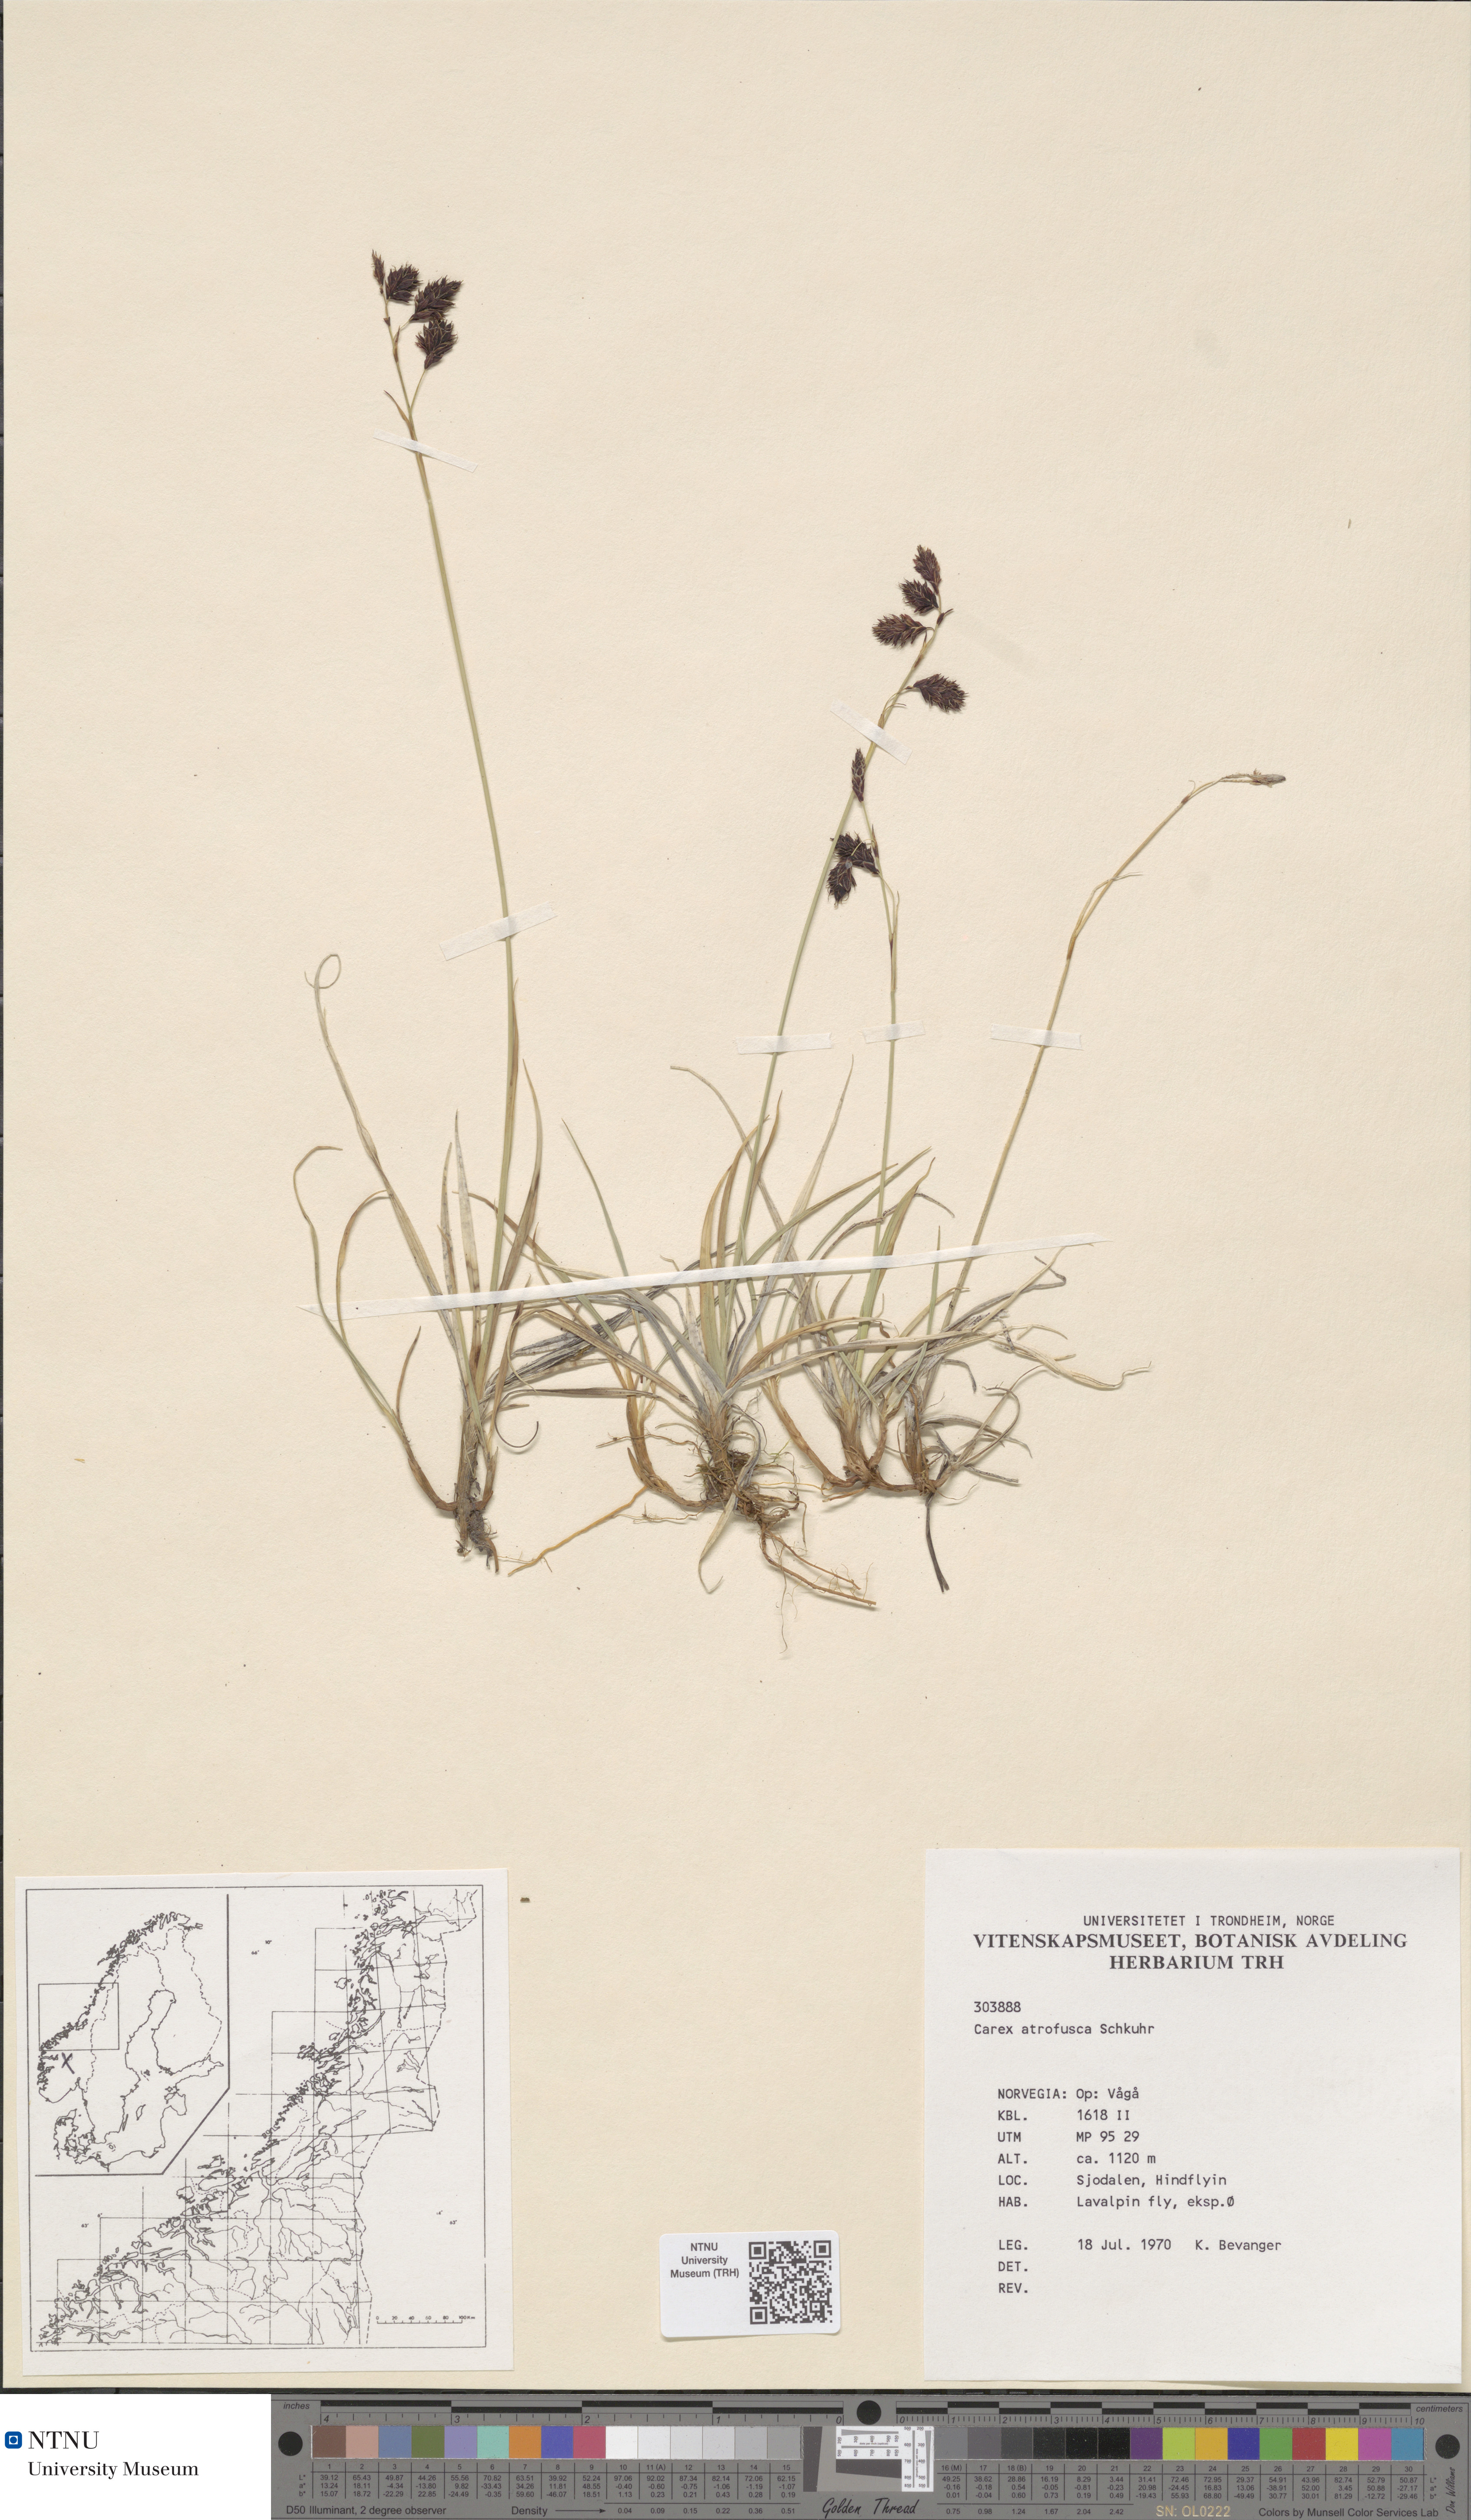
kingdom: Plantae
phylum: Tracheophyta
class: Liliopsida
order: Poales
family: Cyperaceae
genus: Carex
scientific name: Carex atrofusca
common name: Scorched alpine-sedge
